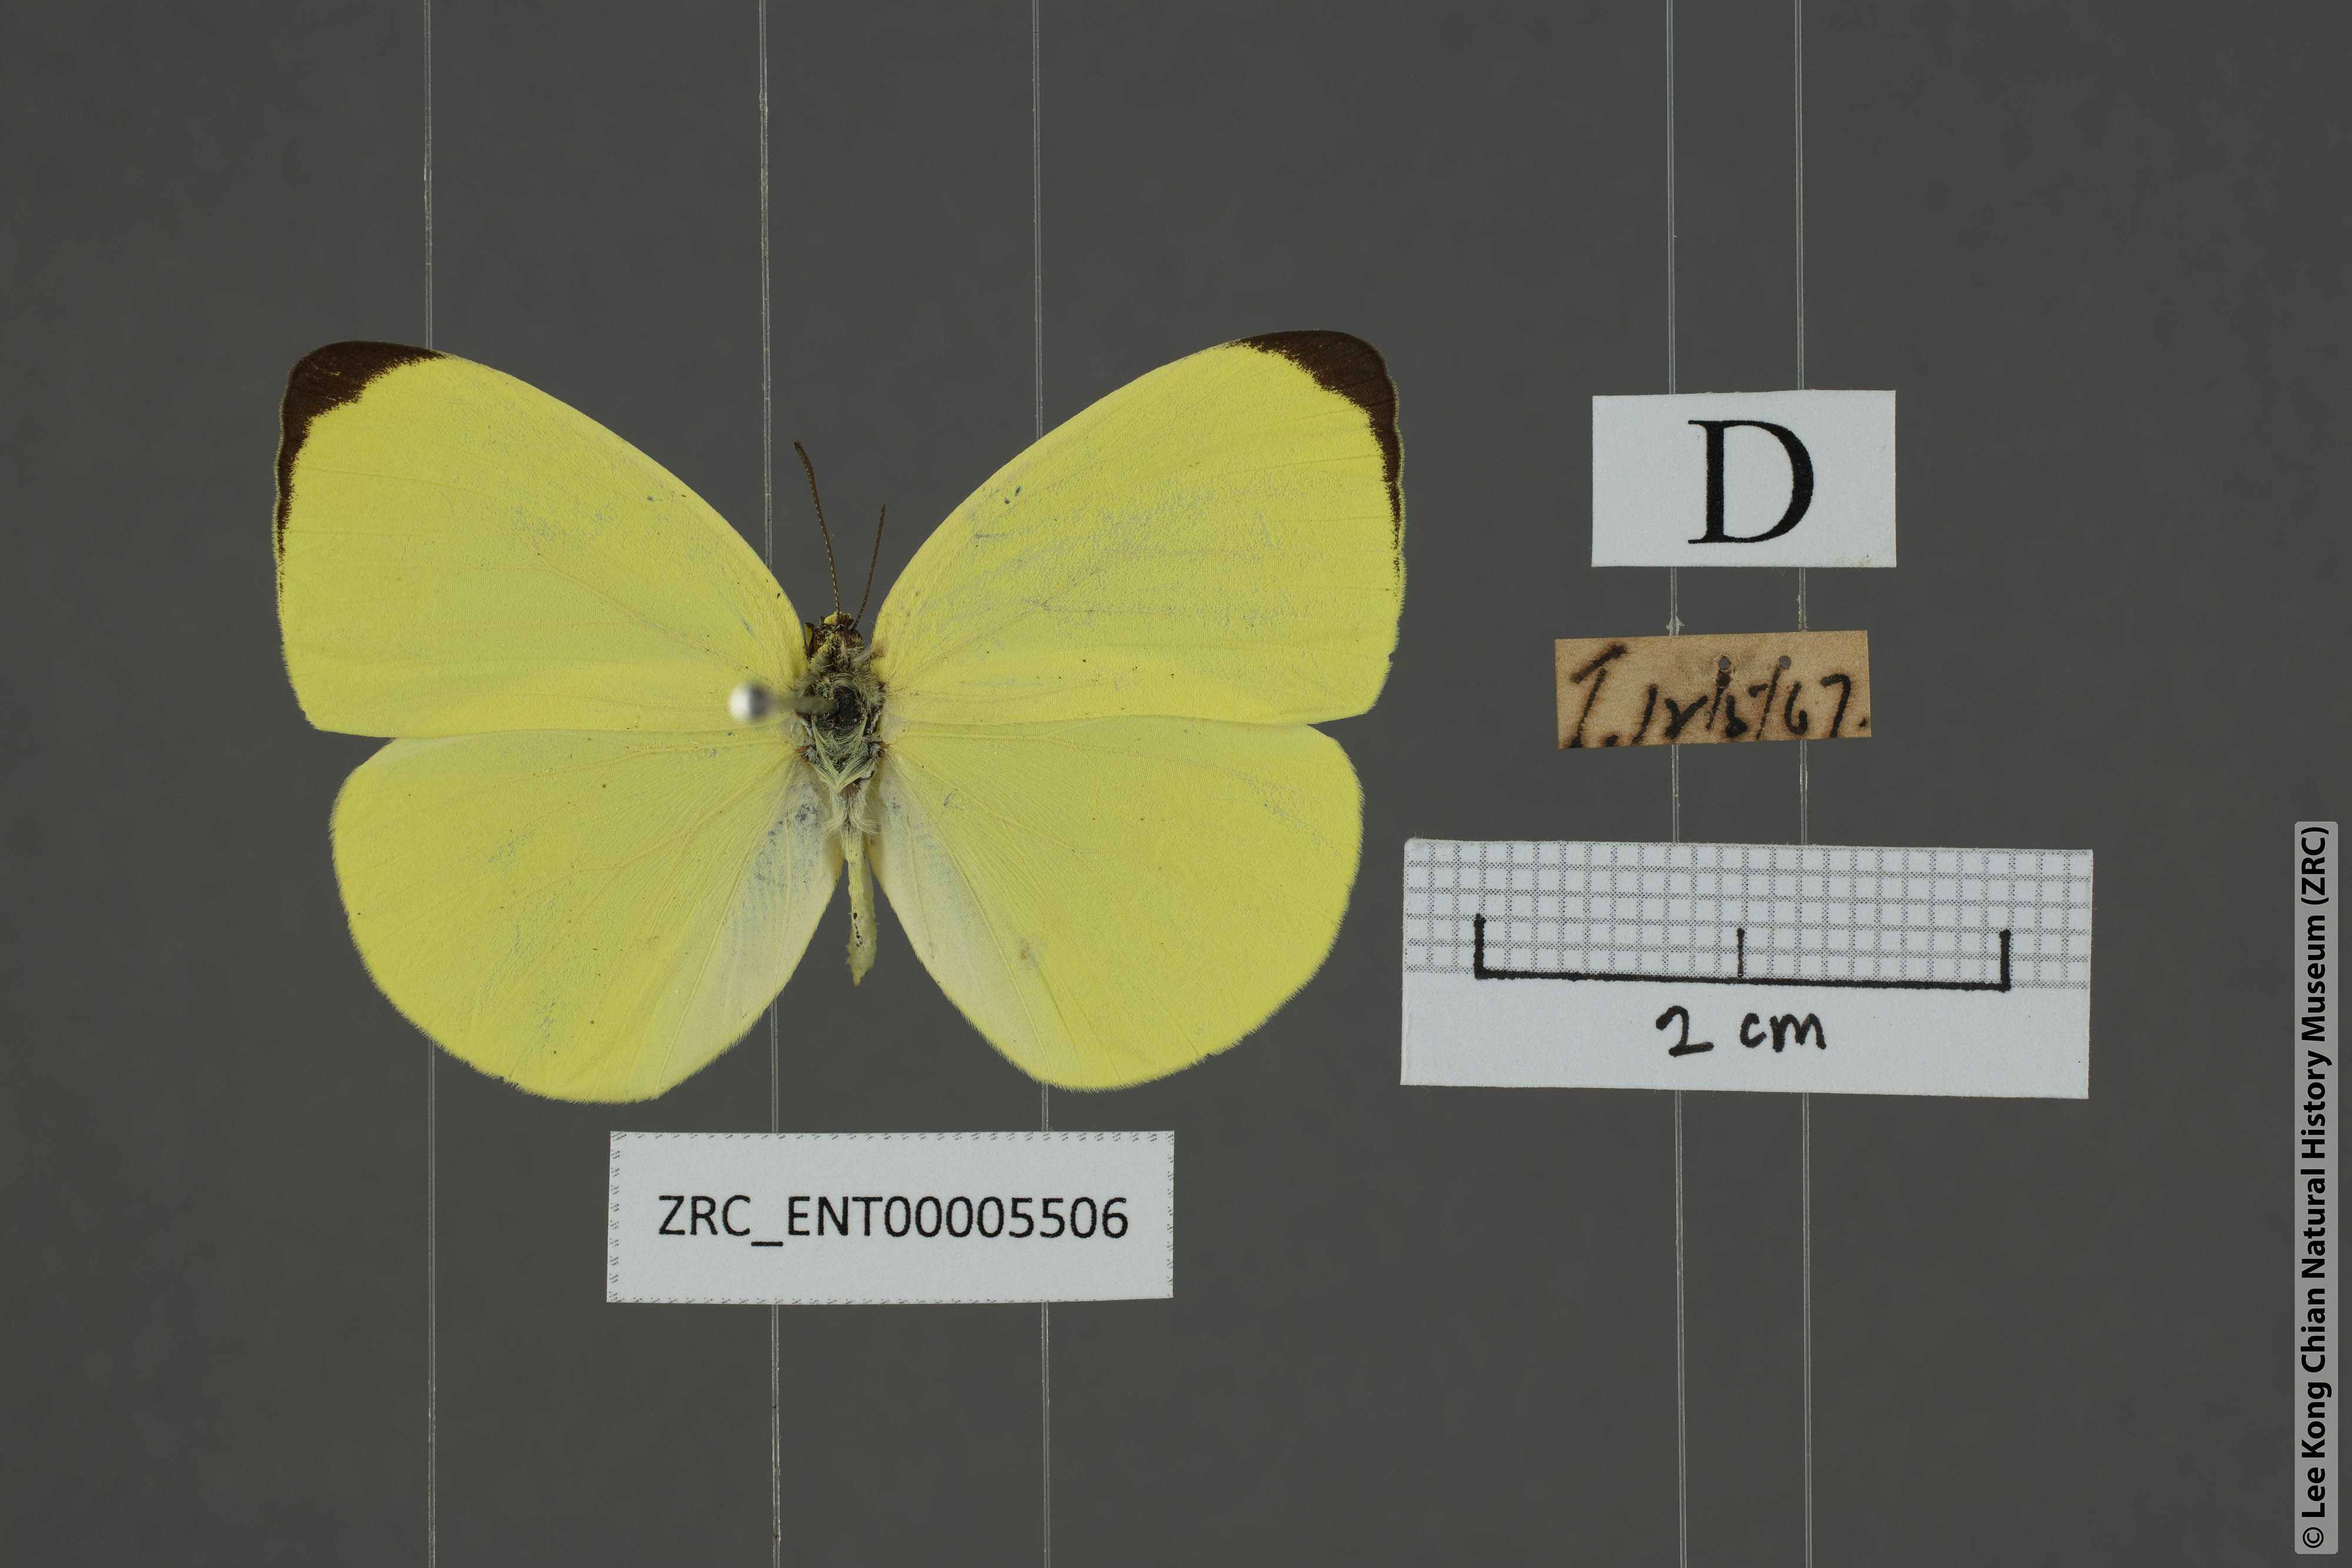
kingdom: Animalia
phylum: Arthropoda
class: Insecta
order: Lepidoptera
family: Pieridae
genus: Gandaca
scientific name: Gandaca harina
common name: Tree yellow
